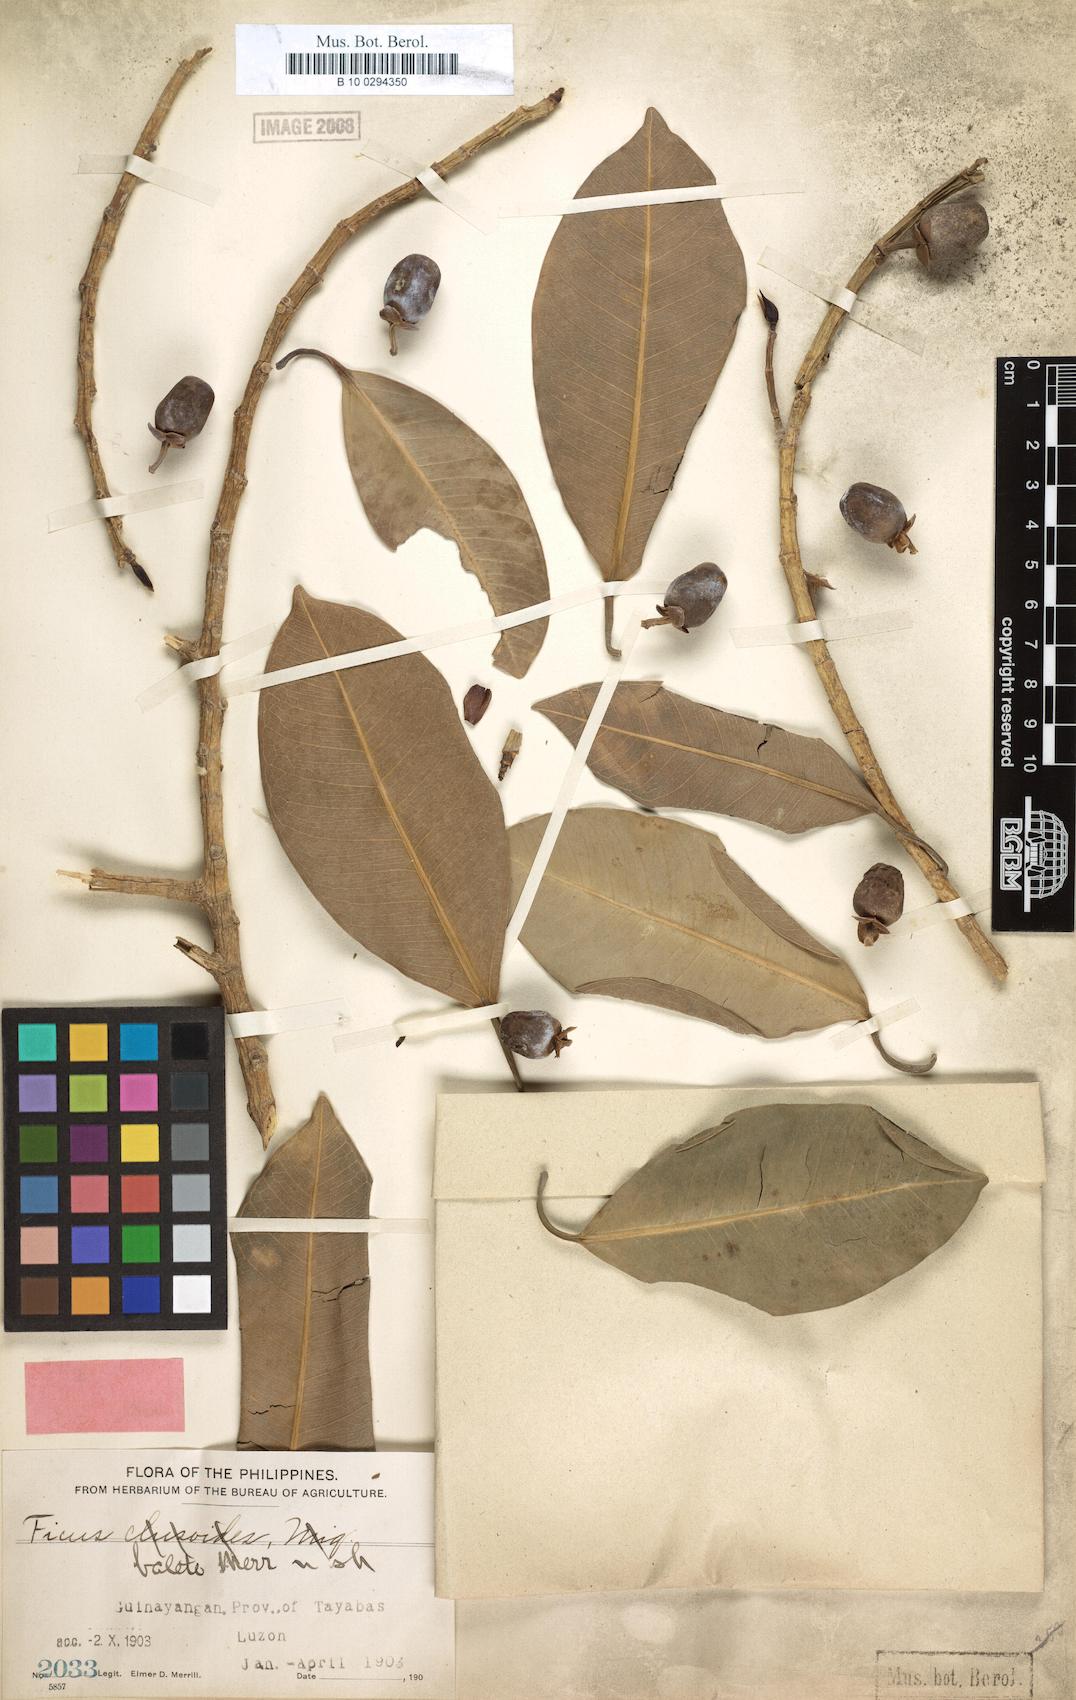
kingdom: Plantae
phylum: Tracheophyta
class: Magnoliopsida
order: Rosales
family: Moraceae
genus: Ficus
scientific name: Ficus balete
